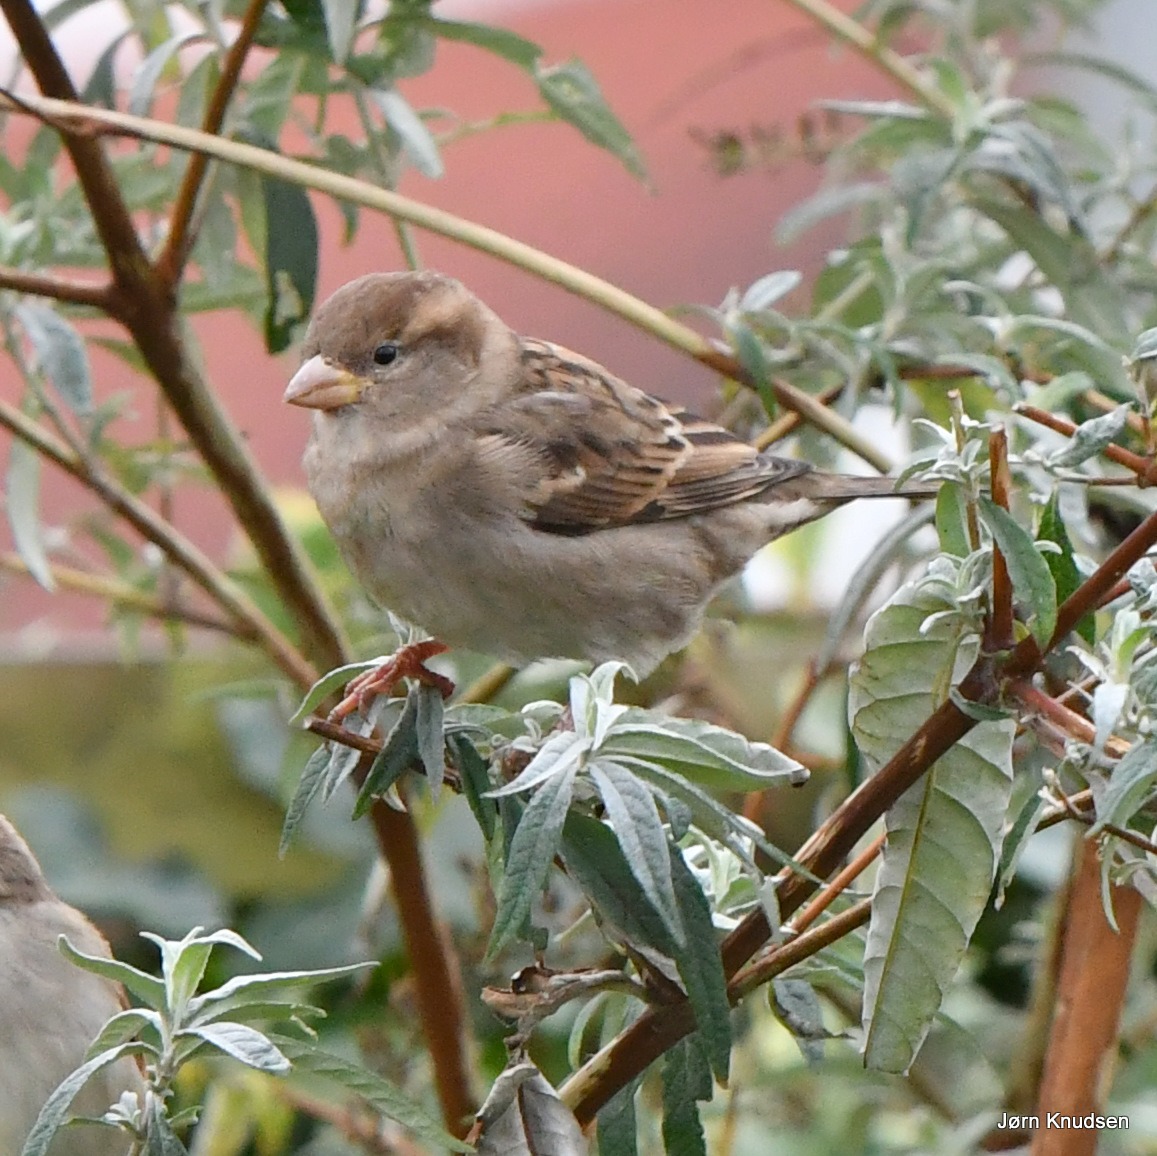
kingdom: Animalia
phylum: Chordata
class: Aves
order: Passeriformes
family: Passeridae
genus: Passer
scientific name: Passer domesticus
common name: Gråspurv
